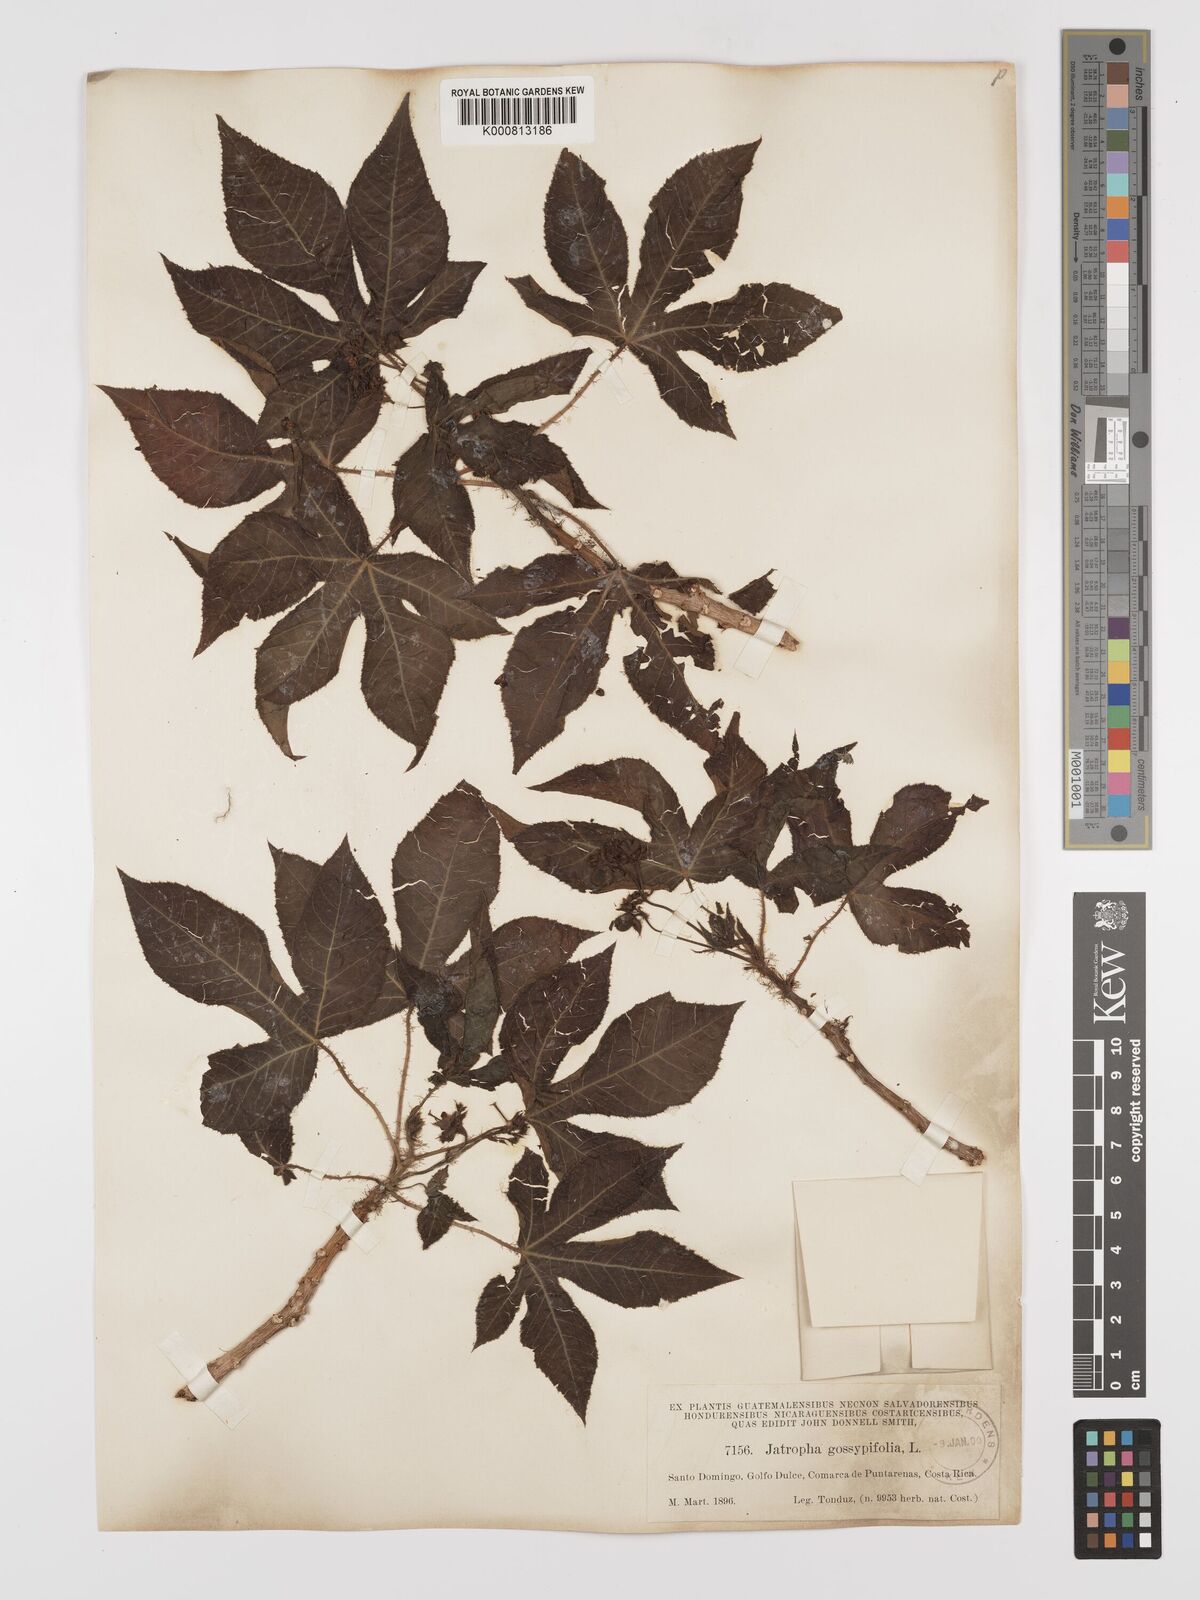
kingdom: Plantae
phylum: Tracheophyta
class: Magnoliopsida
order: Malpighiales
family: Euphorbiaceae
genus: Jatropha
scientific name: Jatropha gossypiifolia
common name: Bellyache bush
